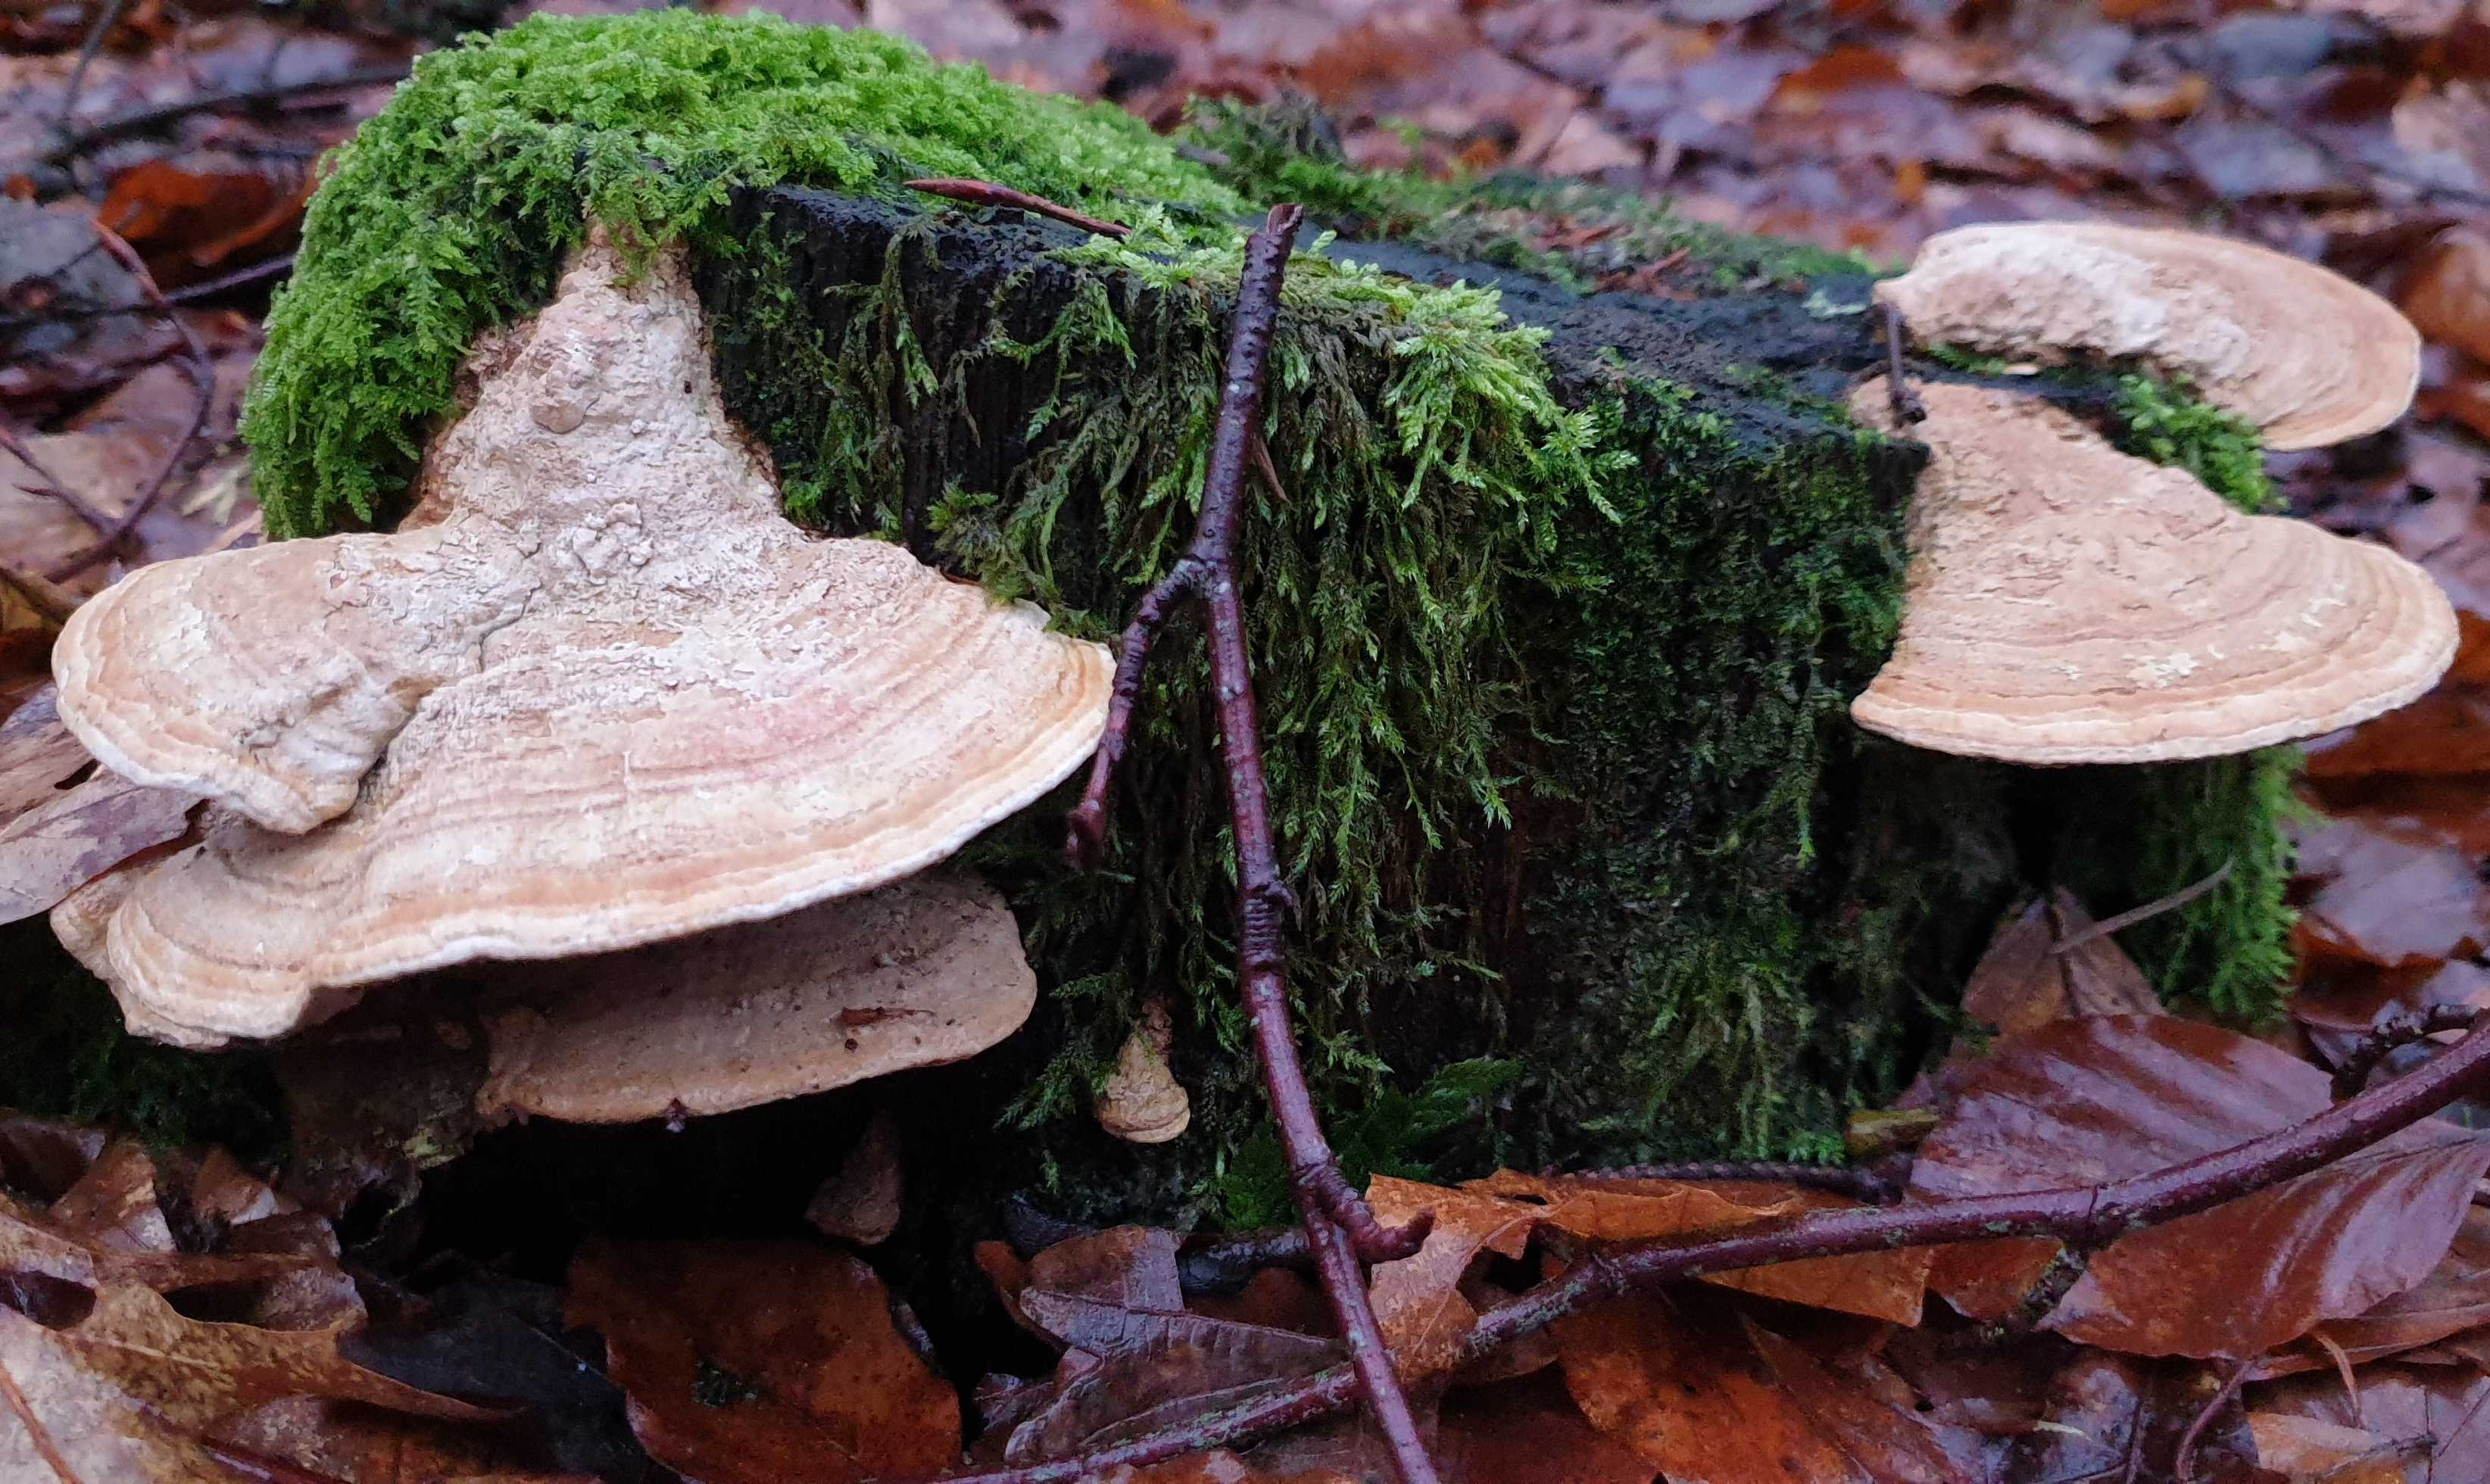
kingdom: Fungi
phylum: Basidiomycota
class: Agaricomycetes
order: Polyporales
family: Fomitopsidaceae
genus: Daedalea
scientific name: Daedalea quercina
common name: ege-labyrintsvamp
